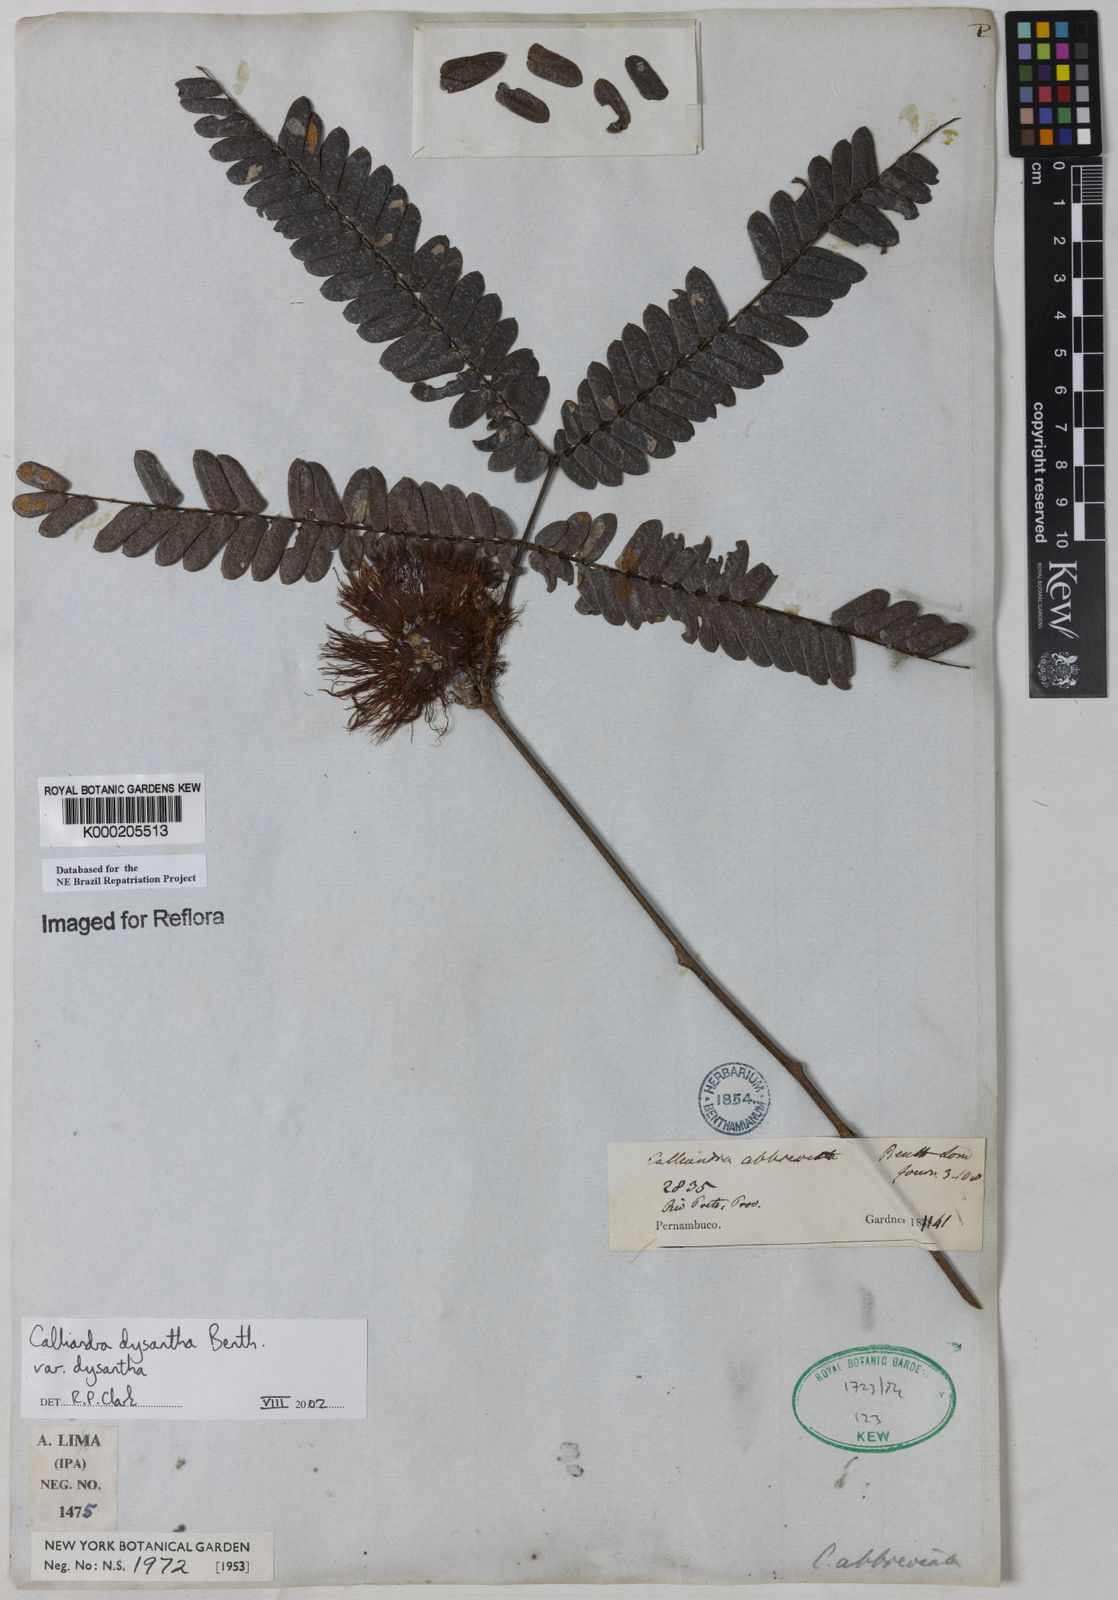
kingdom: Plantae
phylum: Tracheophyta
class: Magnoliopsida
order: Fabales
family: Fabaceae
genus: Calliandra
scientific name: Calliandra dysantha
